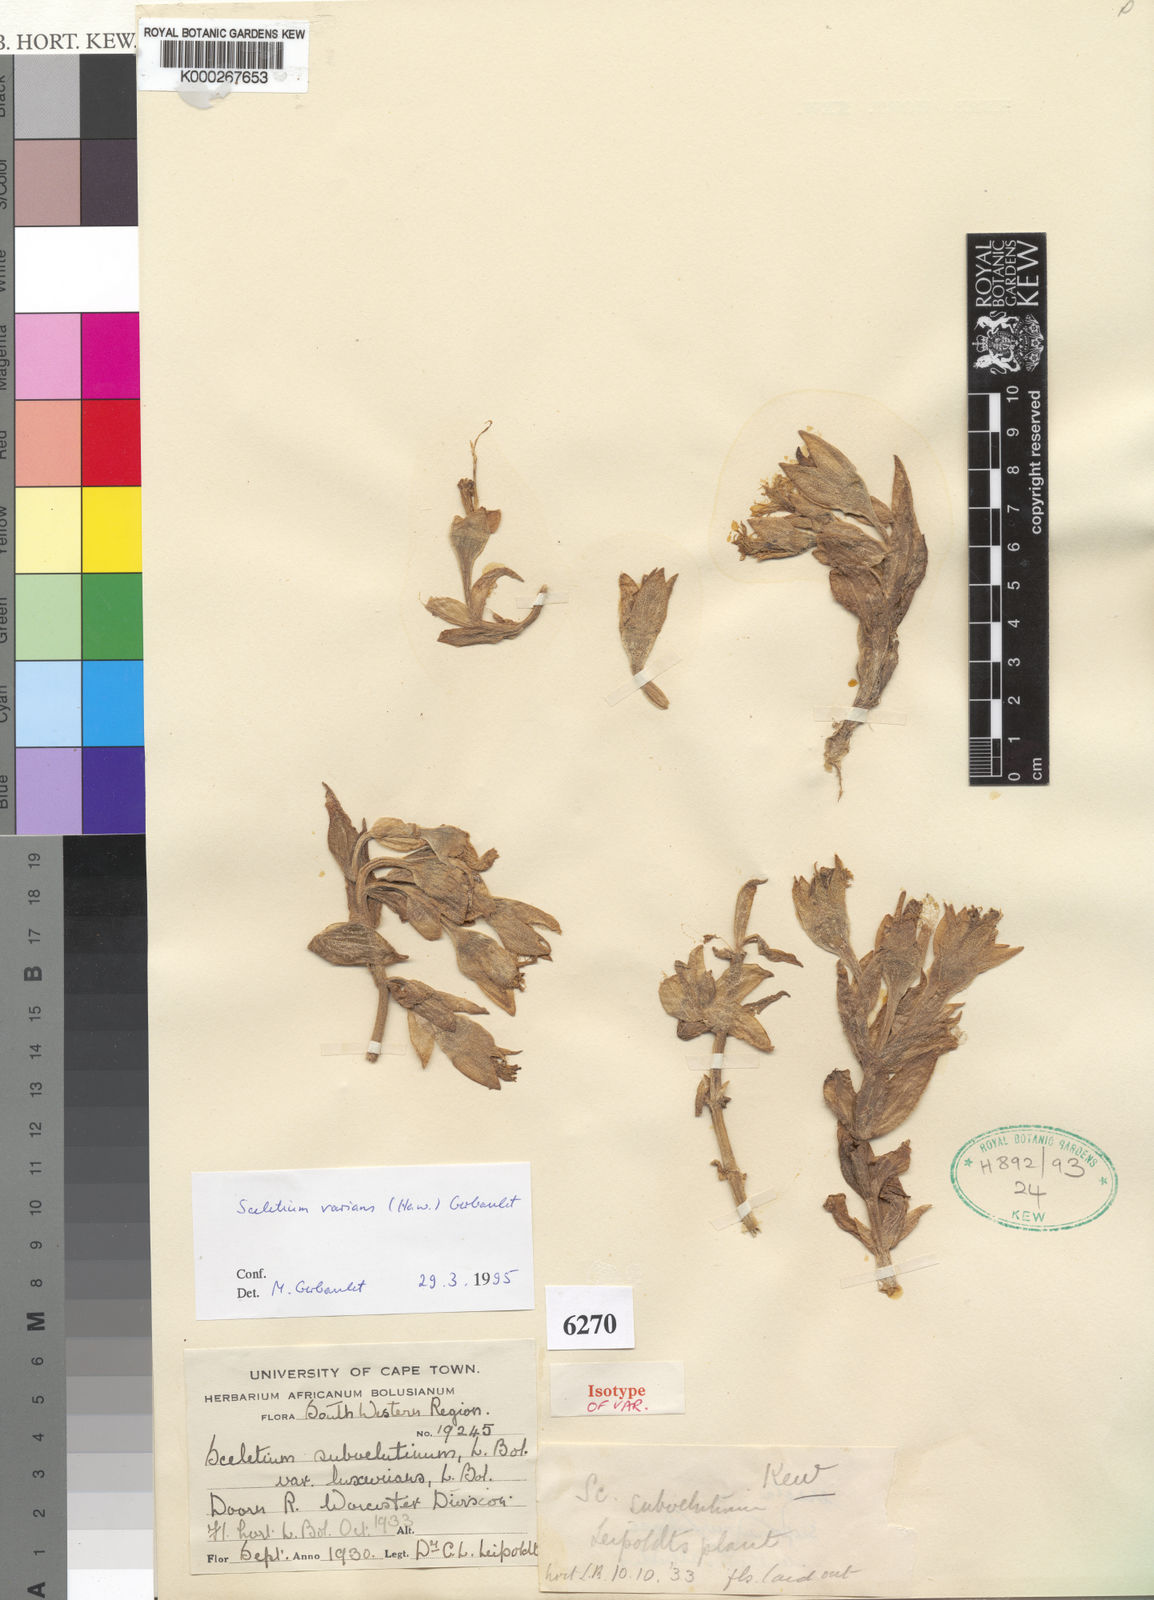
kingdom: Plantae
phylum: Tracheophyta
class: Magnoliopsida
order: Caryophyllales
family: Aizoaceae
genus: Mesembryanthemum
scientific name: Mesembryanthemum varians
